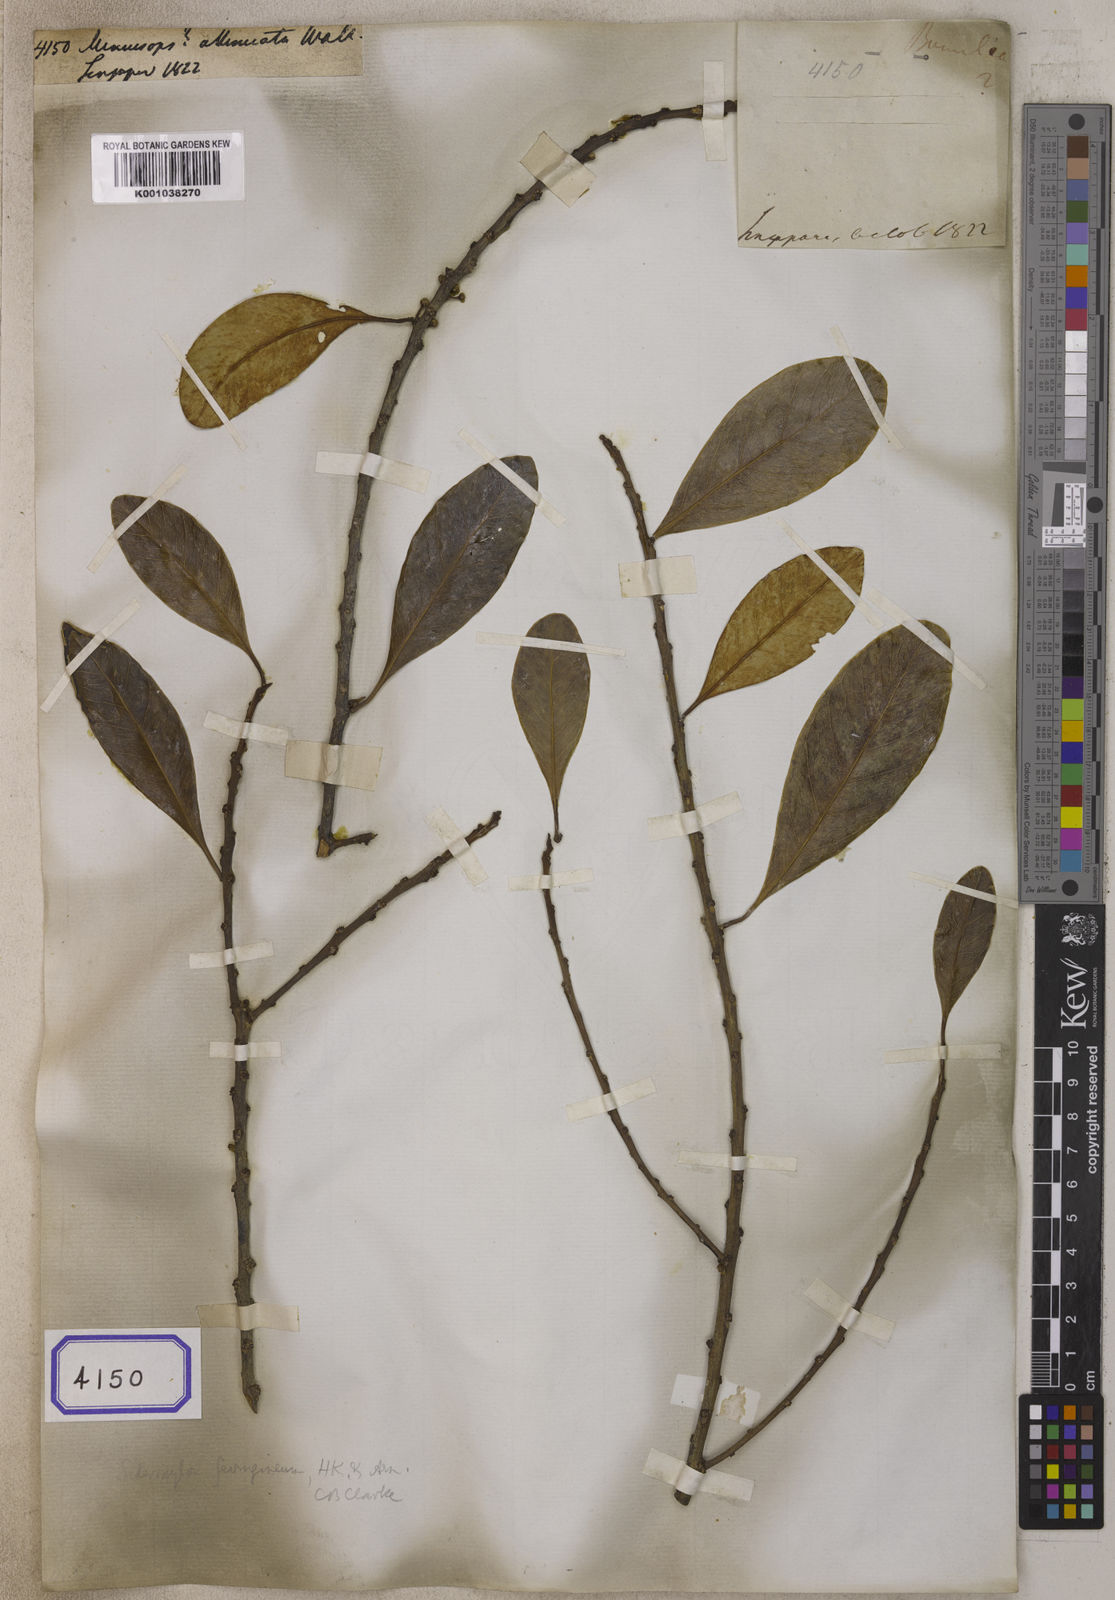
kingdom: Plantae
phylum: Tracheophyta
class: Magnoliopsida
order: Ericales
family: Sapotaceae
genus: Mimusops
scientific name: Mimusops
